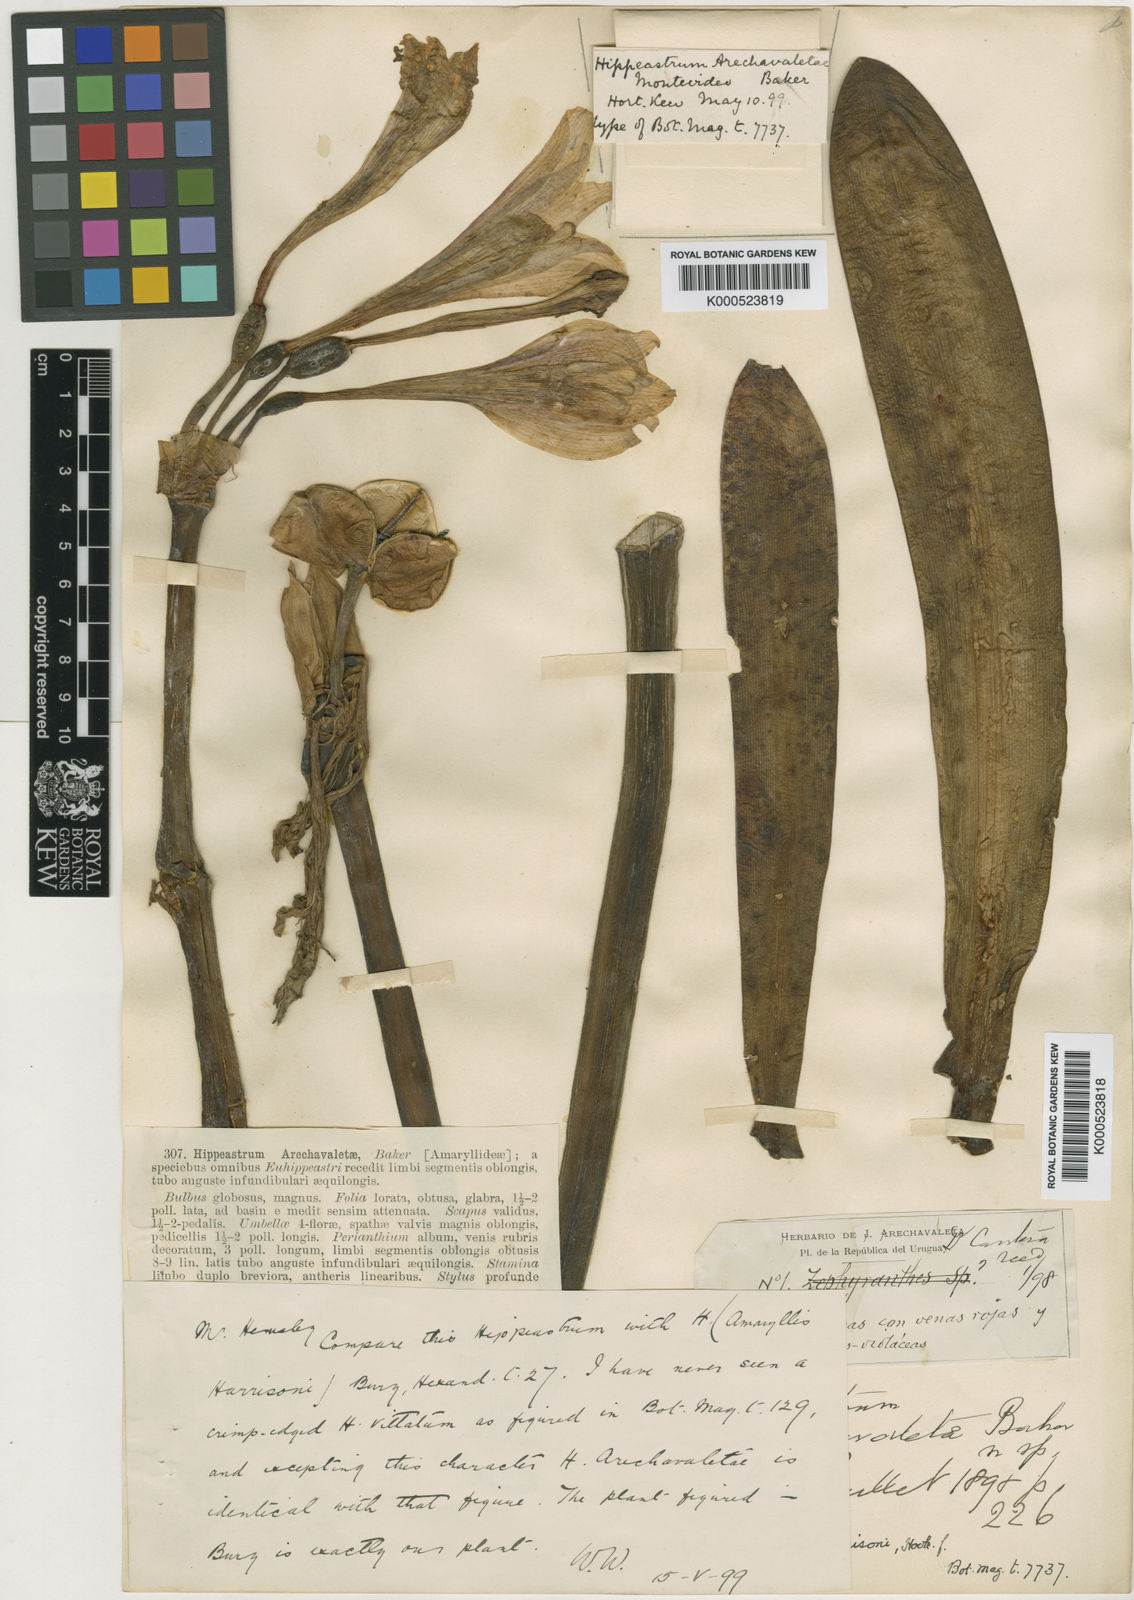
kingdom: Plantae
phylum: Tracheophyta
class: Liliopsida
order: Asparagales
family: Amaryllidaceae
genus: Hippeastrum
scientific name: Hippeastrum harrisonii
